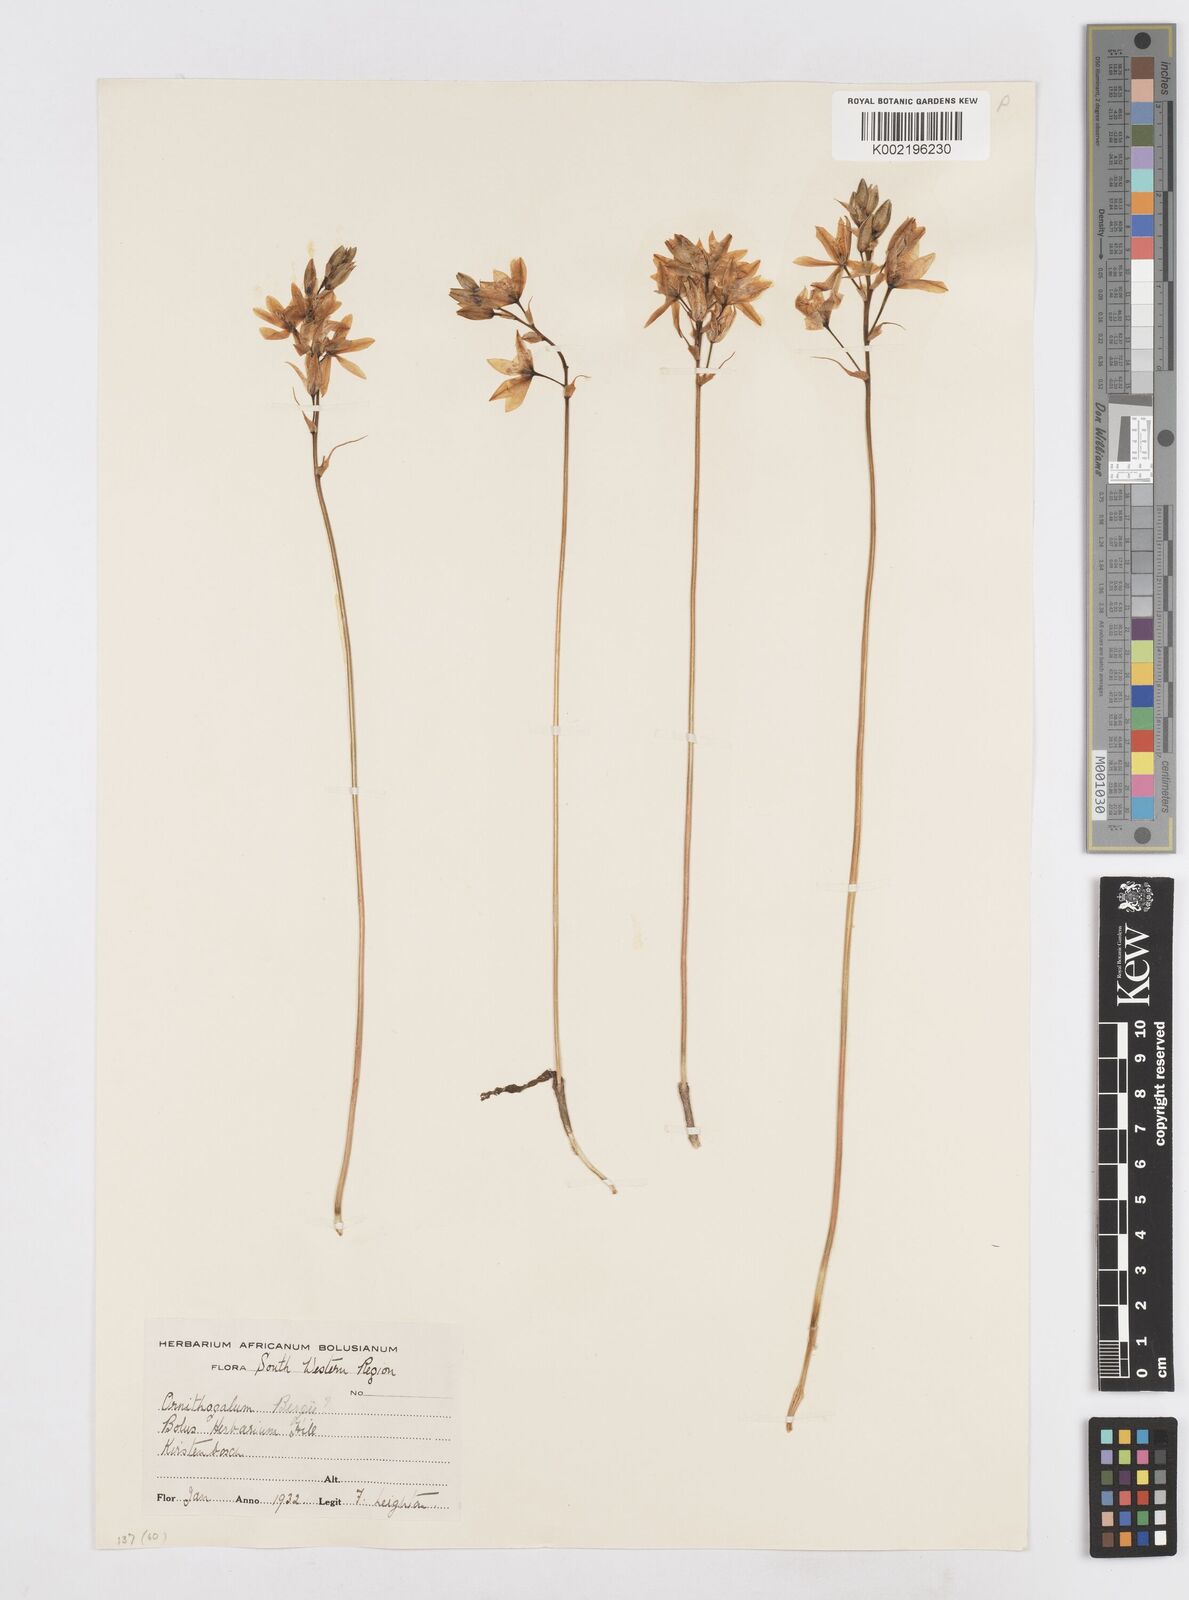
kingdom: Plantae
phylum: Tracheophyta
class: Liliopsida
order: Asparagales
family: Asparagaceae
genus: Ornithogalum
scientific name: Ornithogalum hispidum
